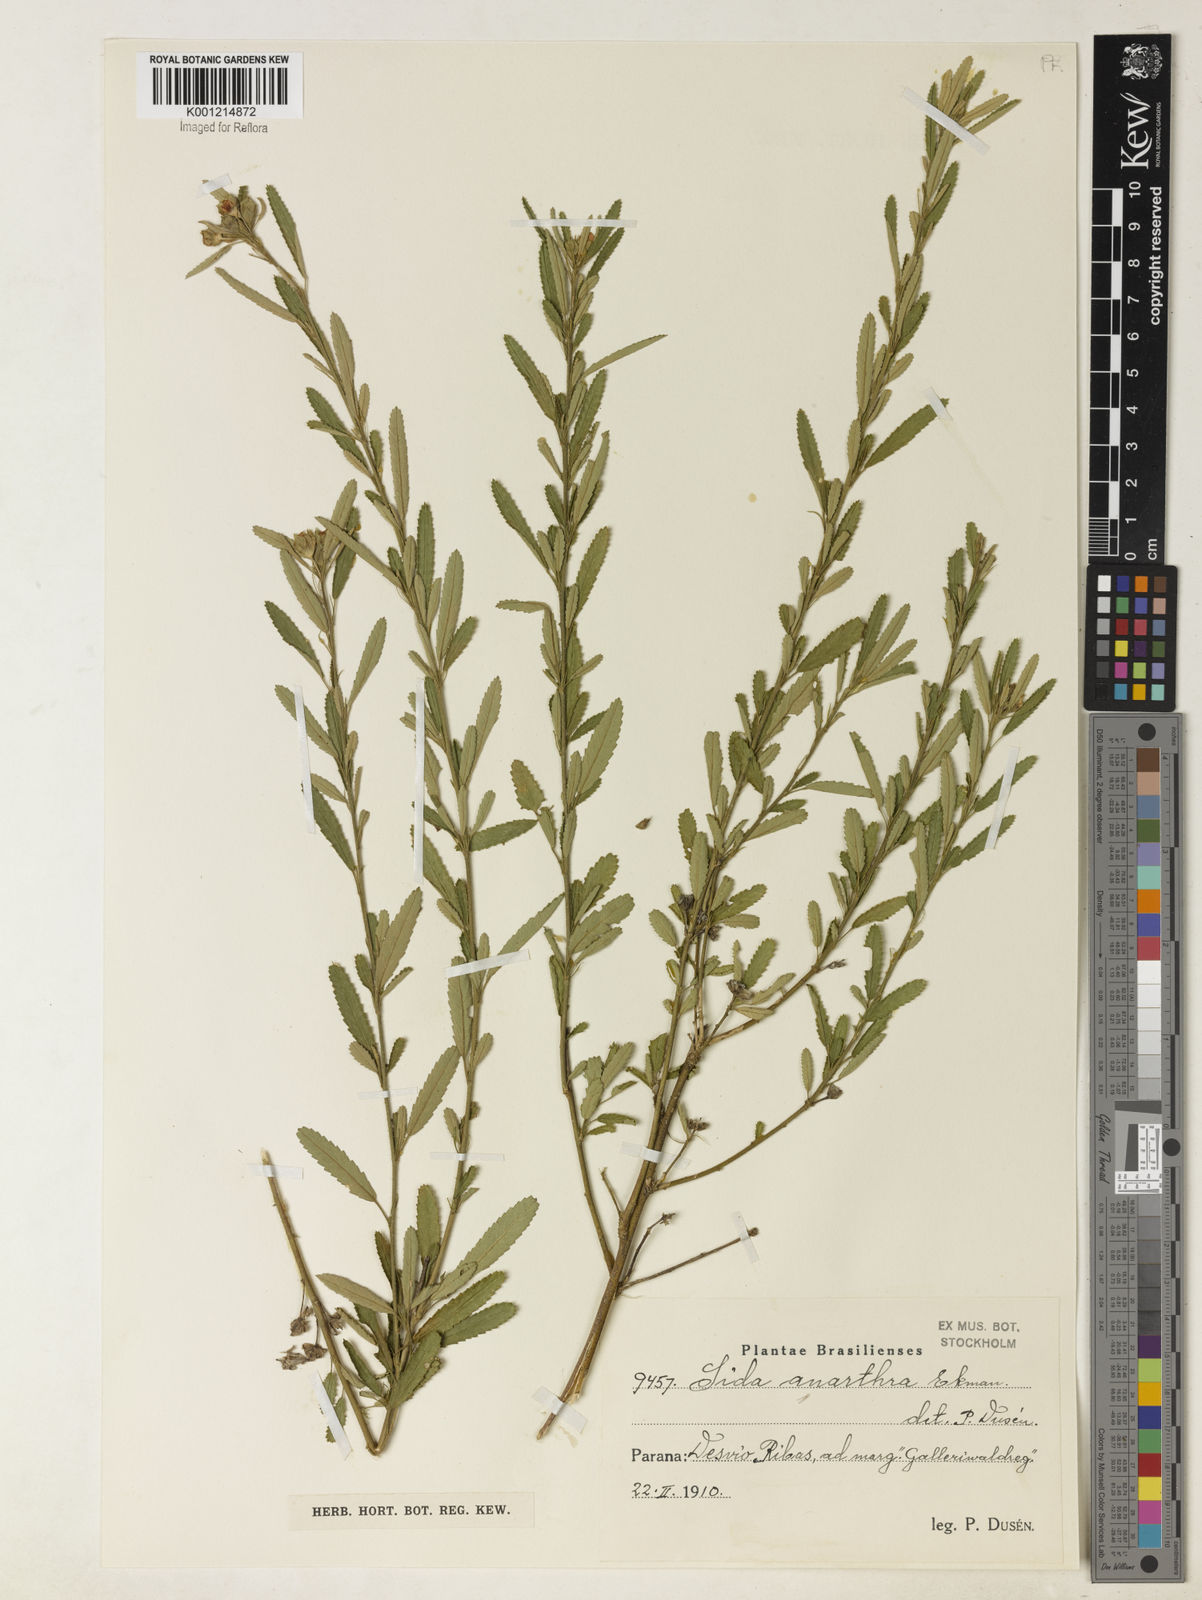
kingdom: Plantae
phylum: Tracheophyta
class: Magnoliopsida
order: Malvales
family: Malvaceae
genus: Sida
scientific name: Sida potentilloides
